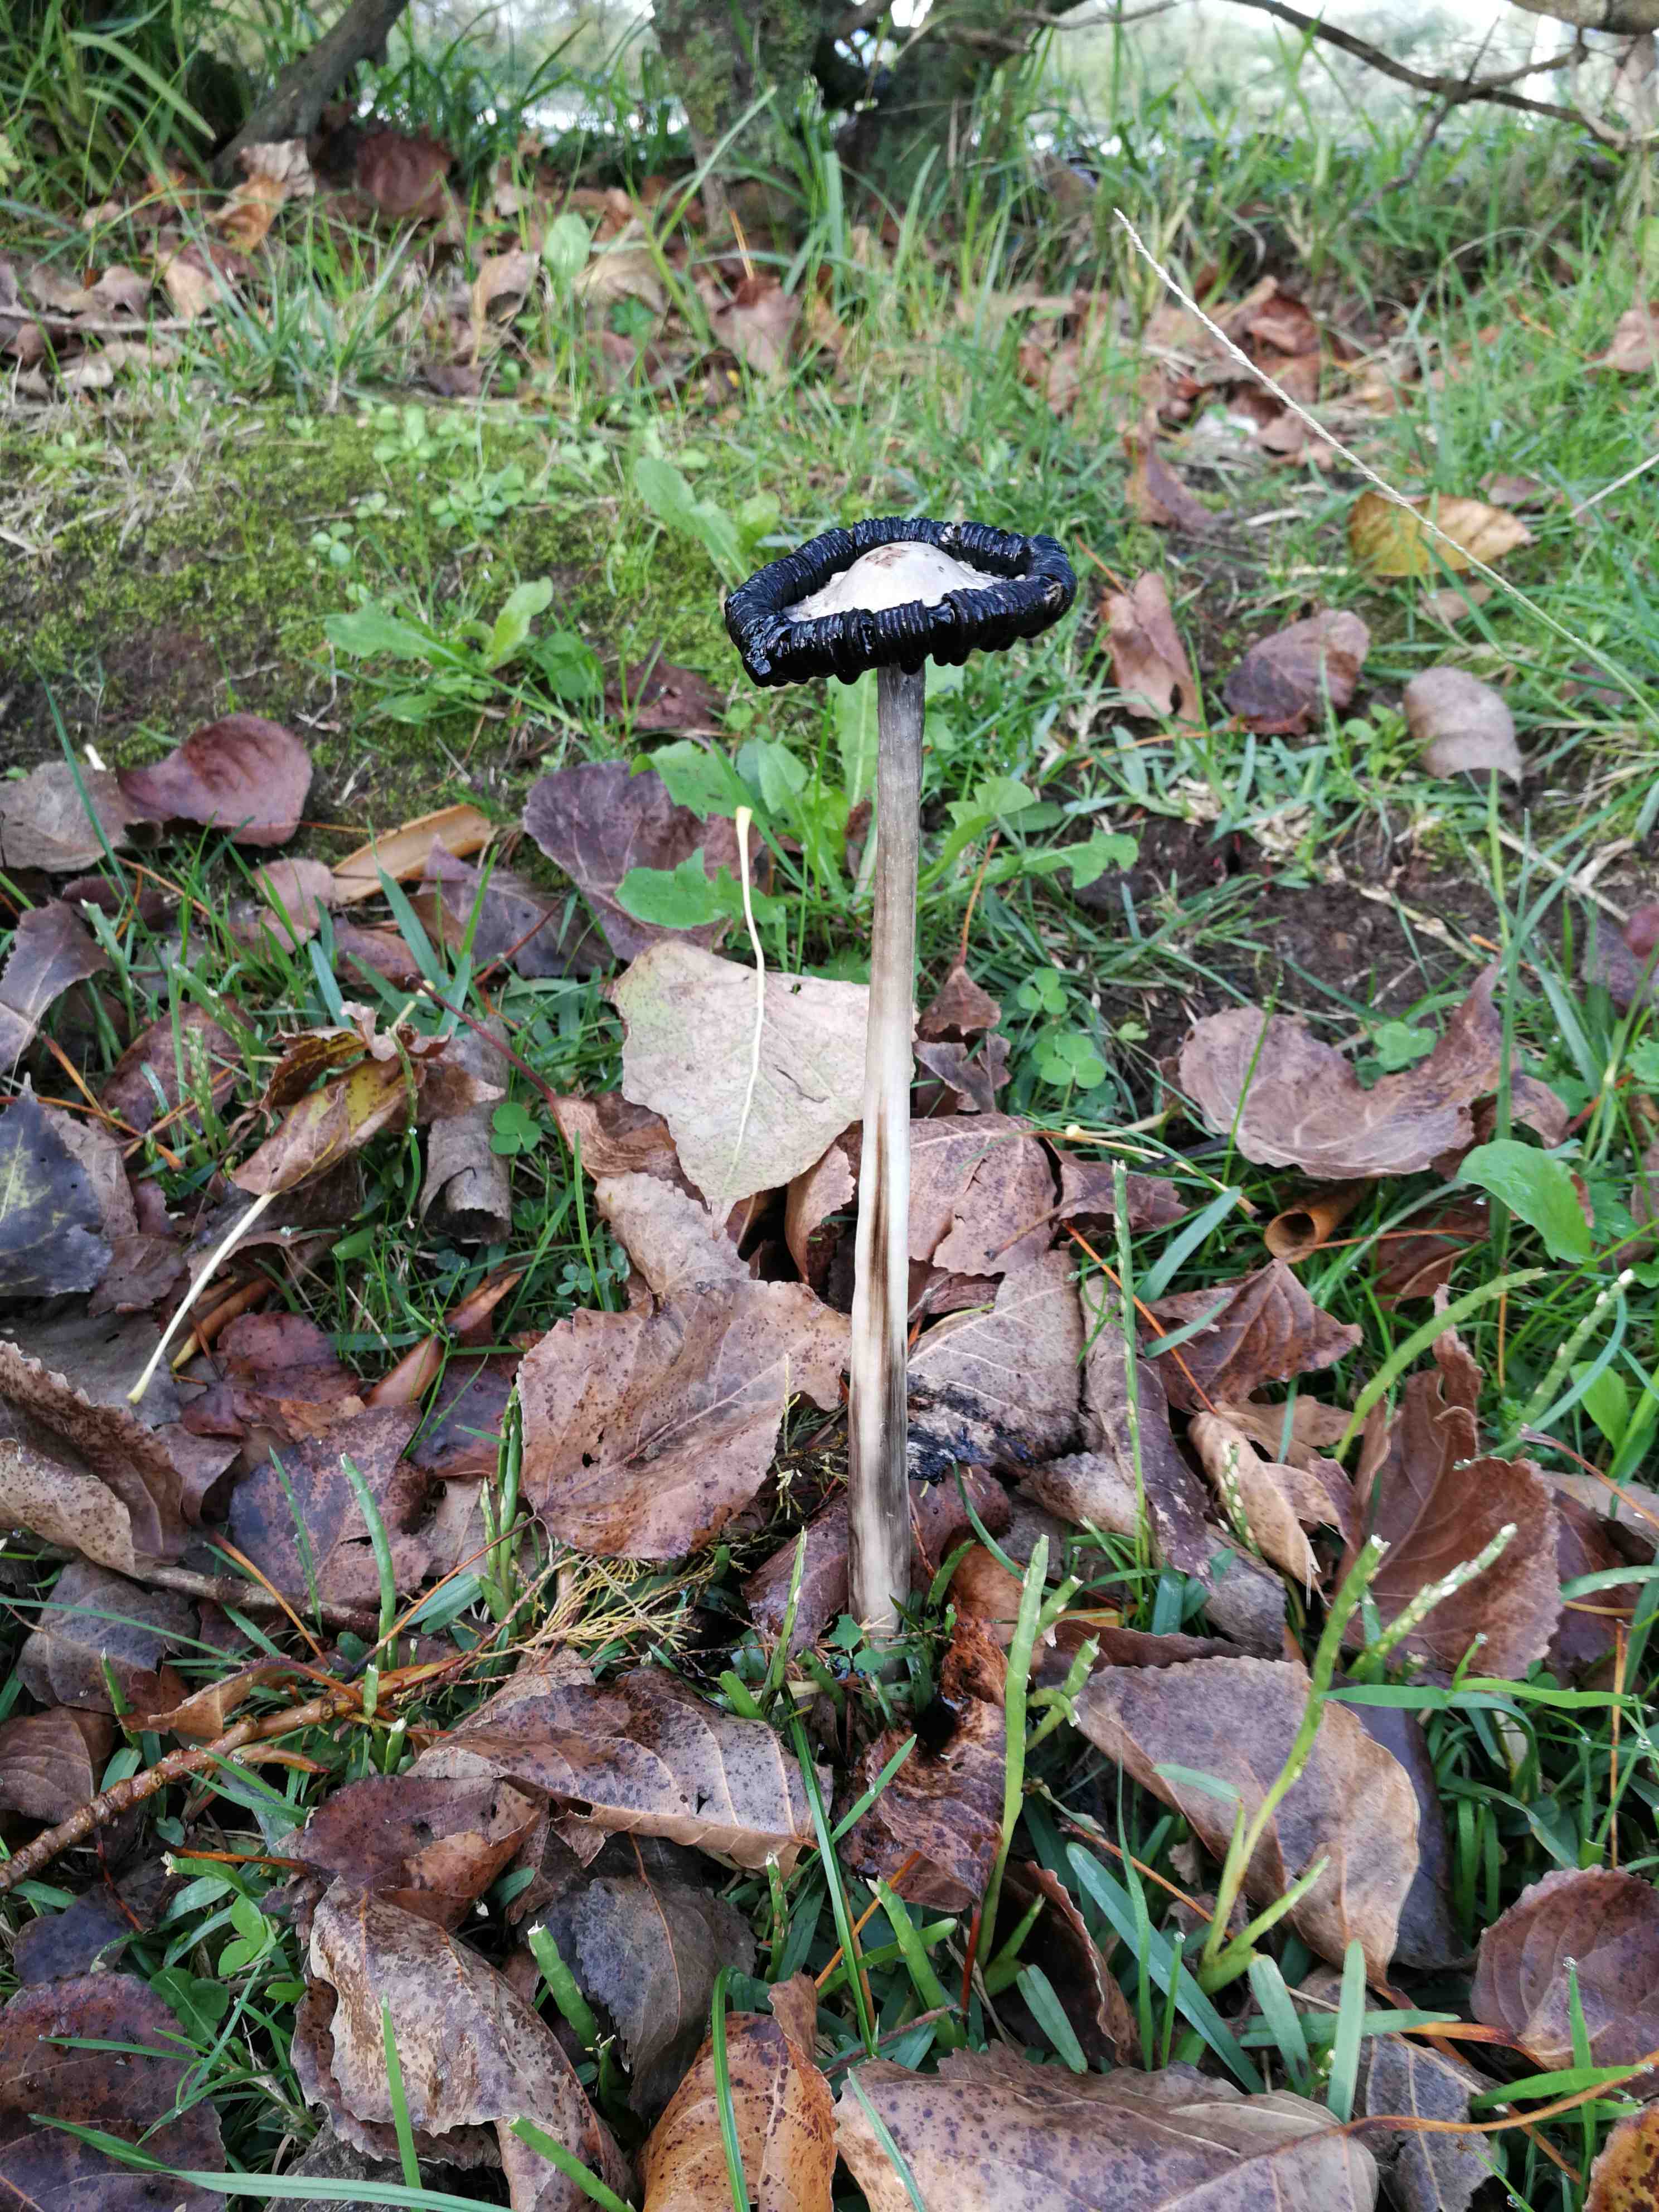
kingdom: Fungi
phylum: Basidiomycota
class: Agaricomycetes
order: Agaricales
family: Agaricaceae
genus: Coprinus
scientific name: Coprinus comatus
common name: stor parykhat
